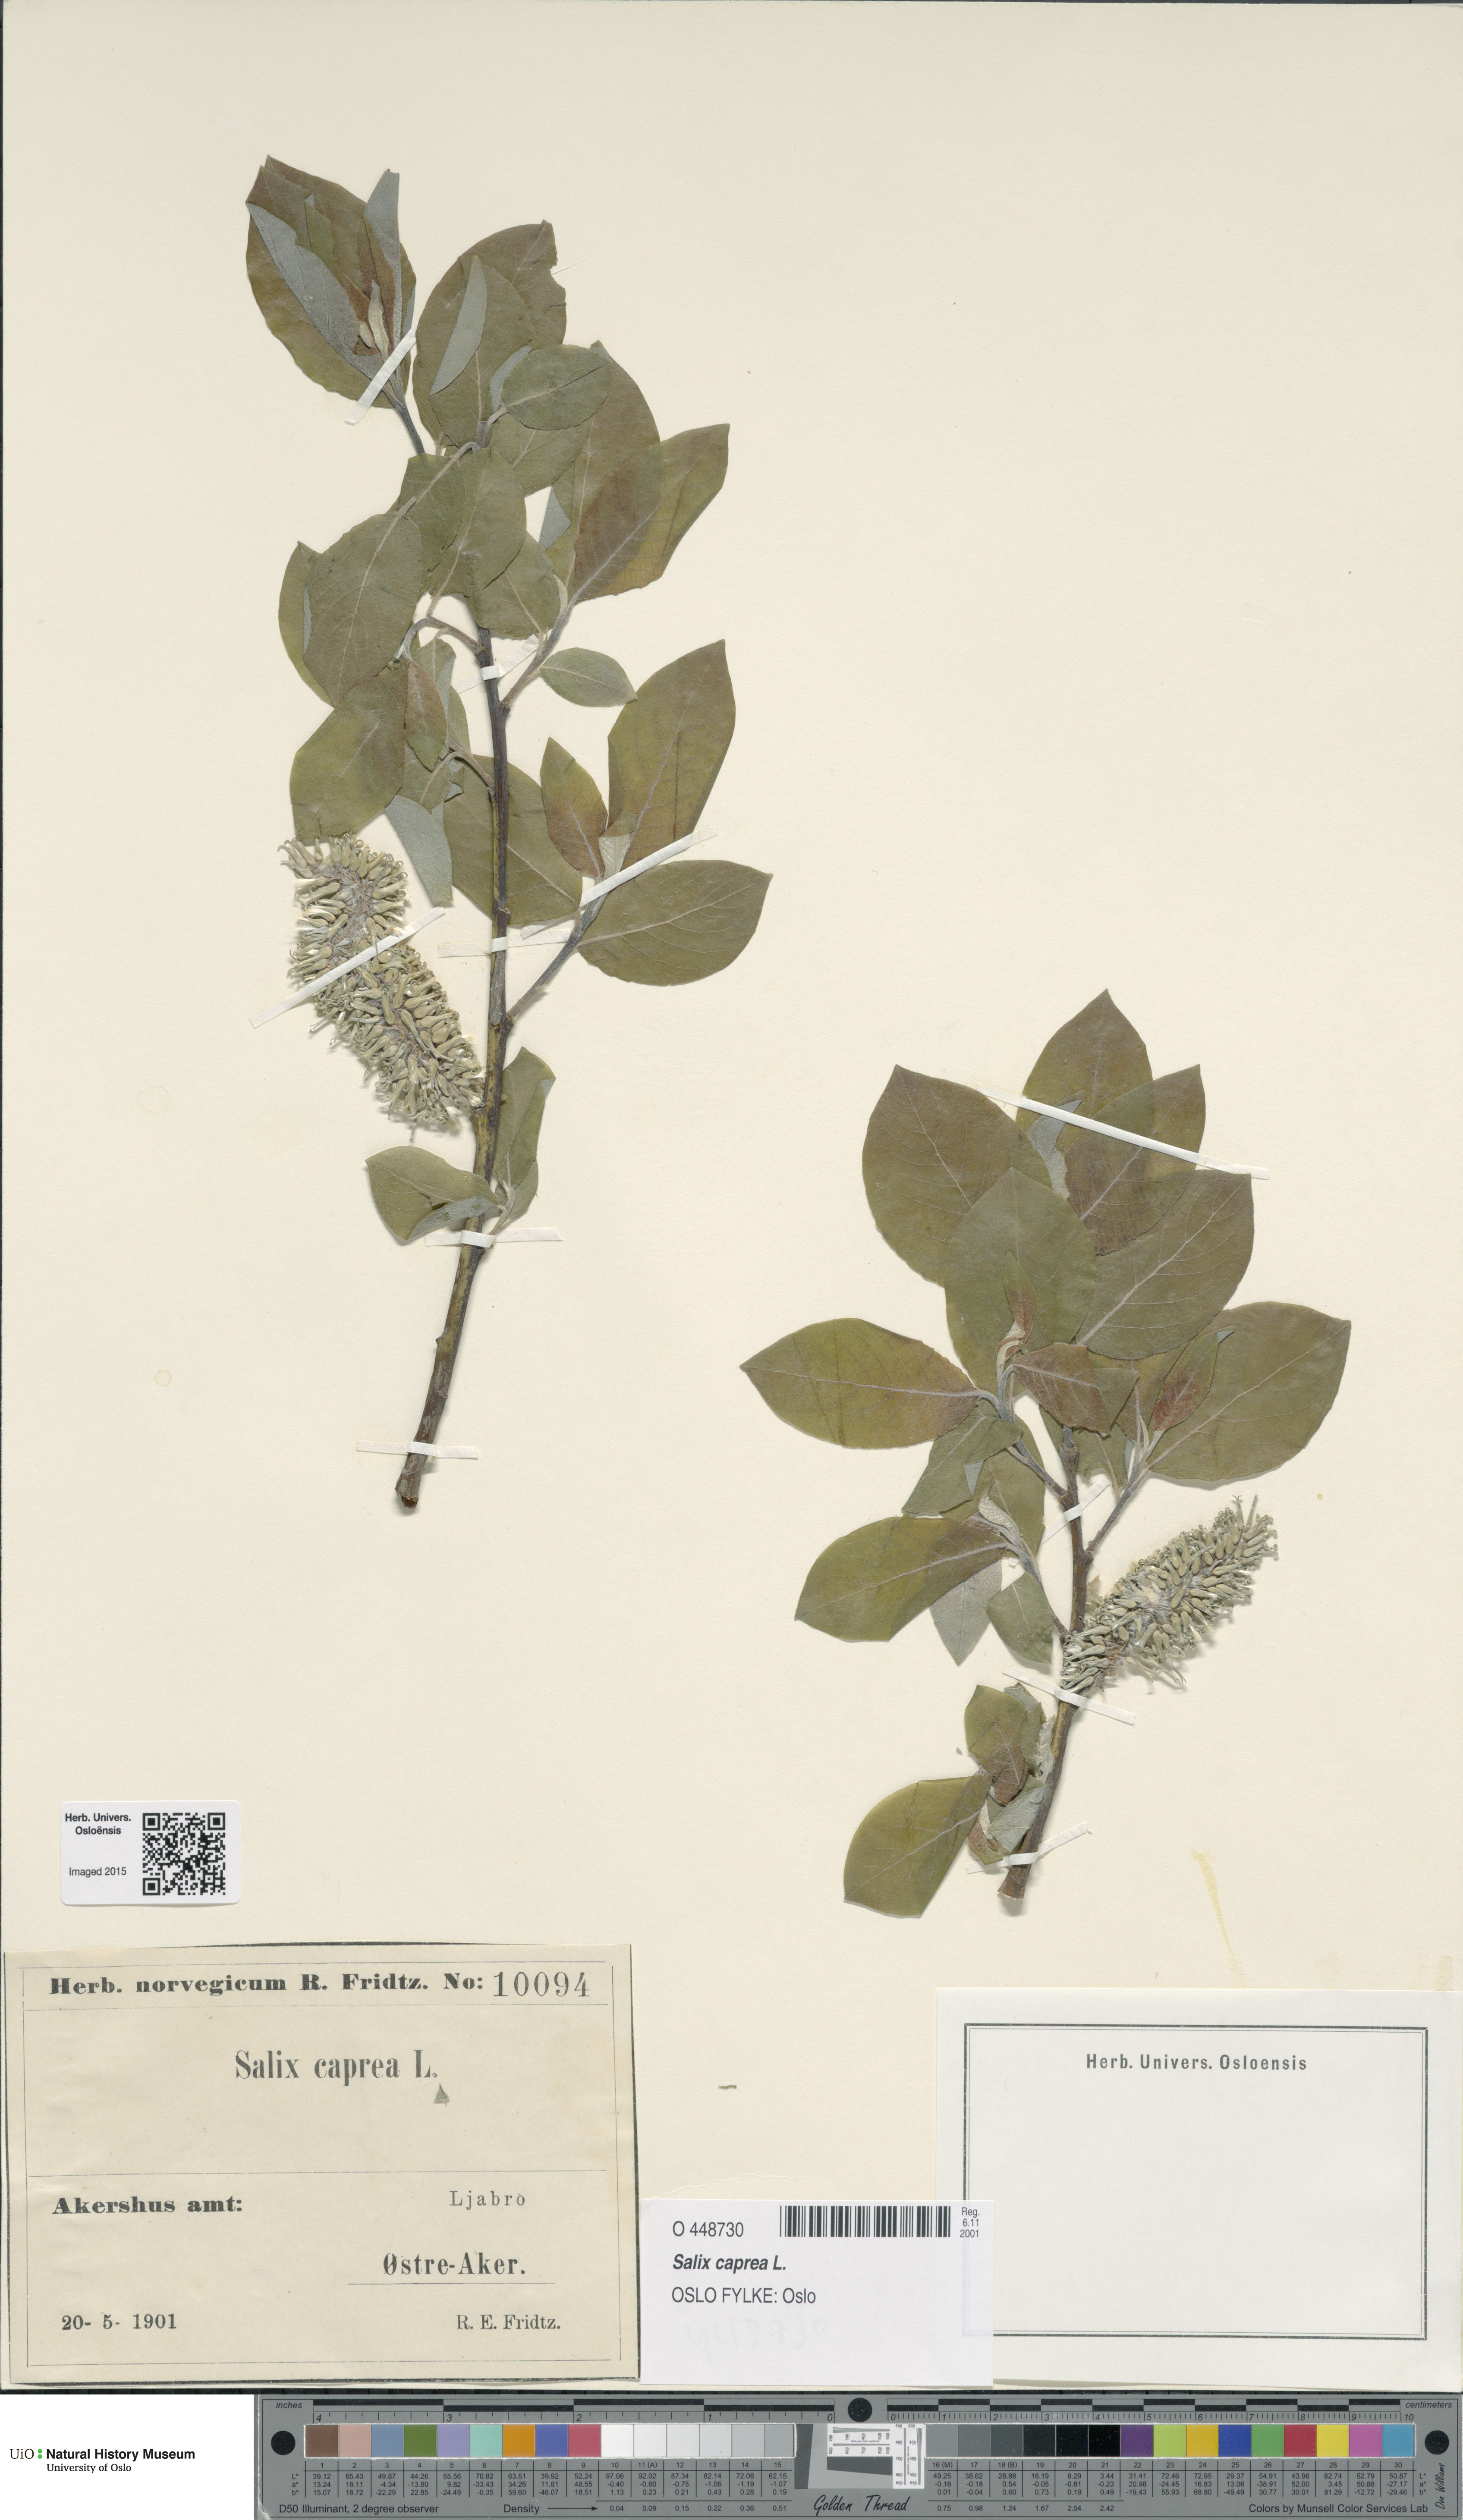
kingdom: Plantae
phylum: Tracheophyta
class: Magnoliopsida
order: Malpighiales
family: Salicaceae
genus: Salix
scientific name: Salix caprea
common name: Goat willow
